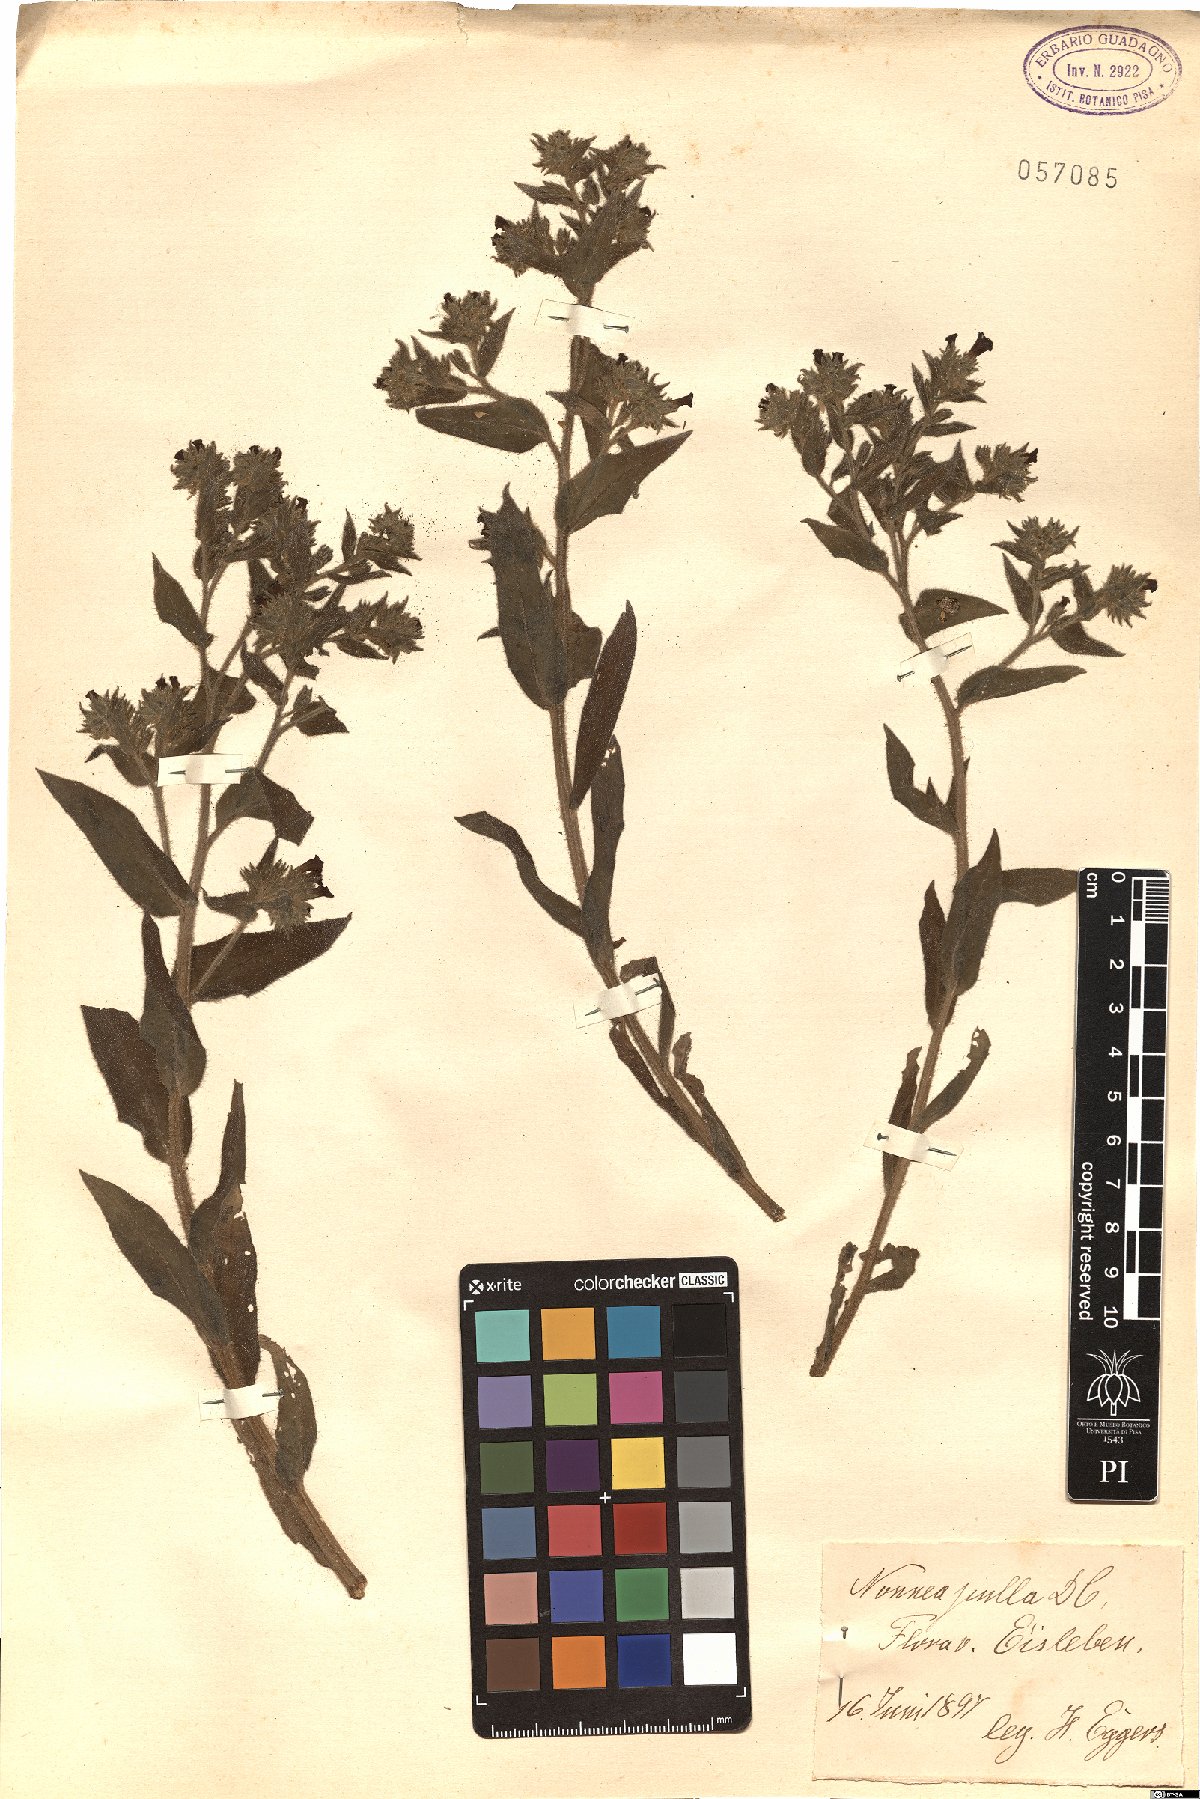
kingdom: Plantae
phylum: Tracheophyta
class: Magnoliopsida
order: Boraginales
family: Boraginaceae
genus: Nonea
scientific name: Nonea pulla
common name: Brown nonea
